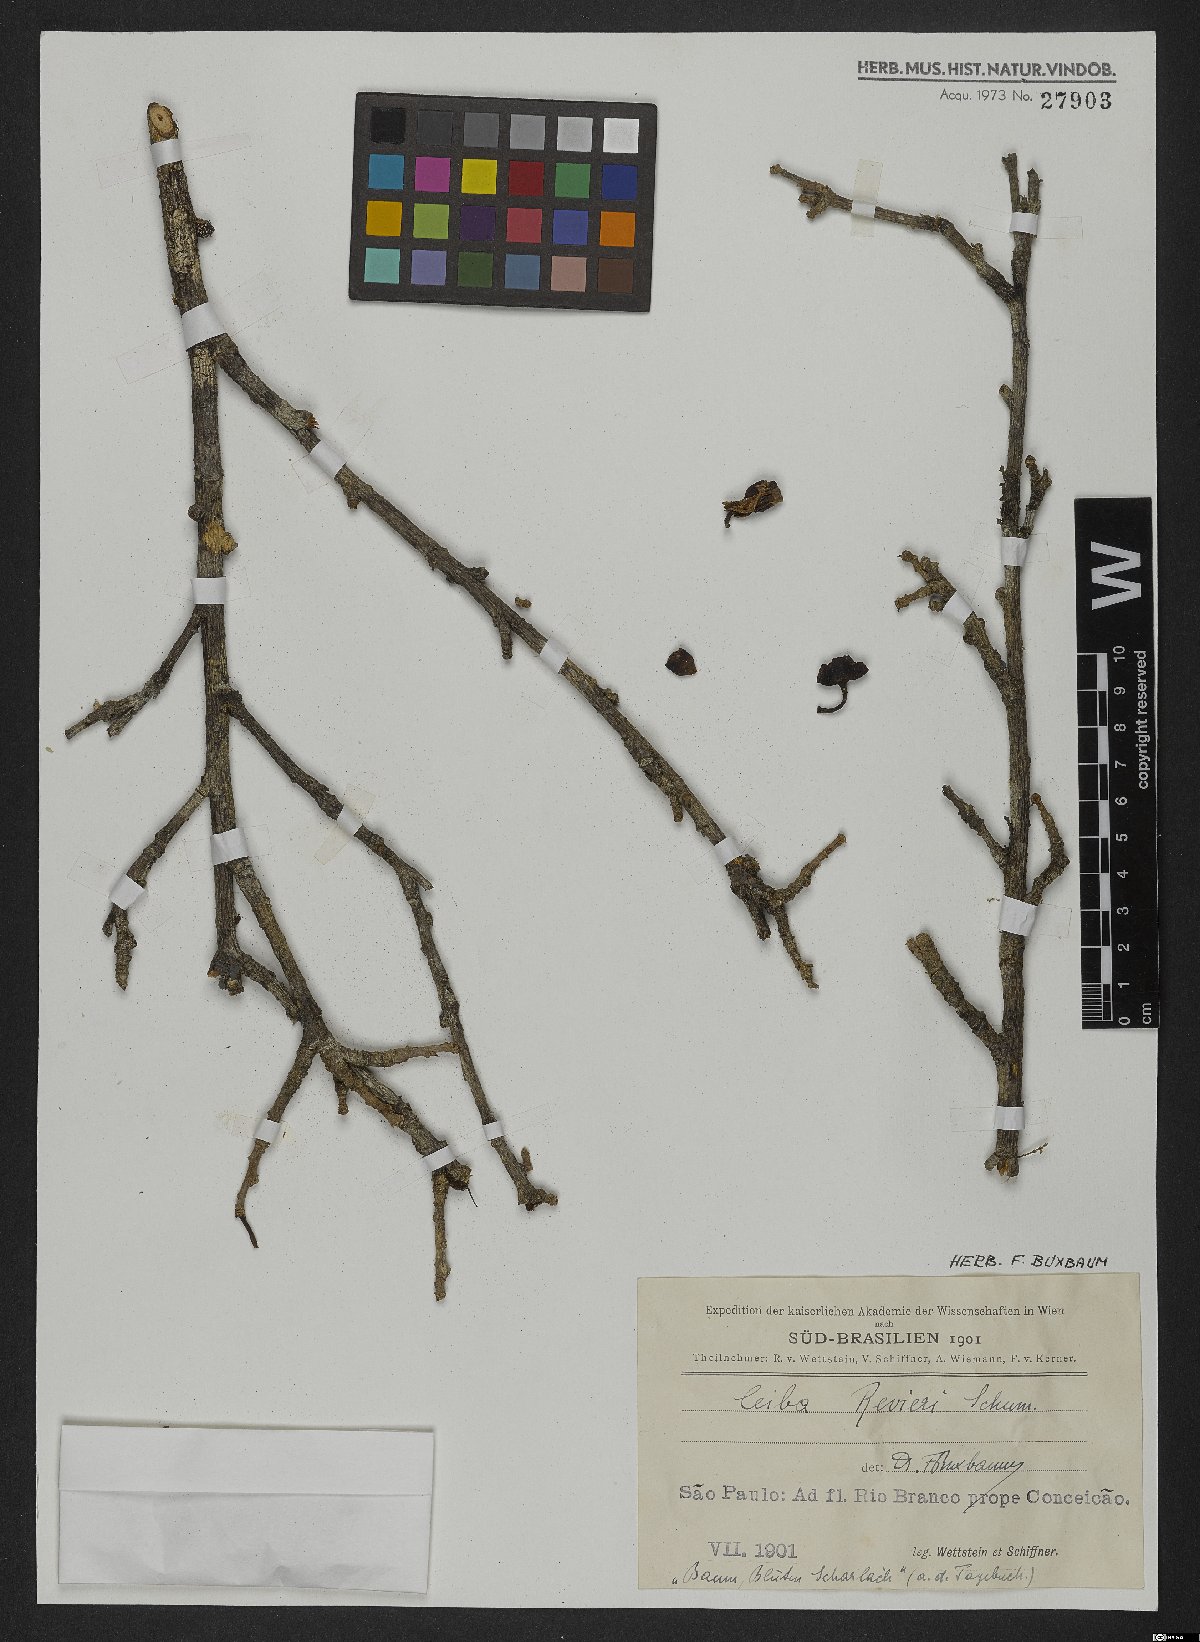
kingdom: Plantae
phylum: Tracheophyta
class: Magnoliopsida
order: Malvales
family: Malvaceae
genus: Spirotheca
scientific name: Spirotheca rivieri
